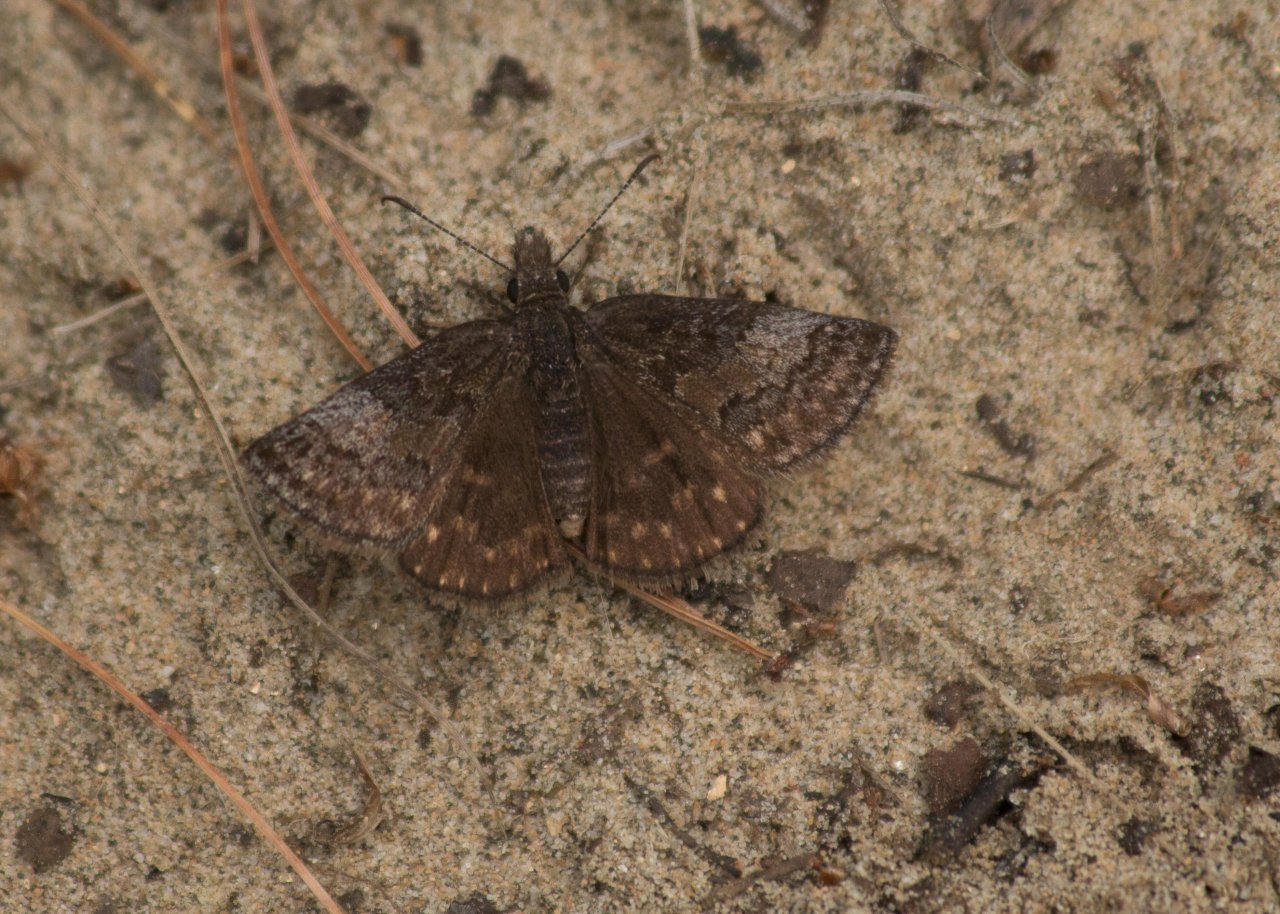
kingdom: Animalia
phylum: Arthropoda
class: Insecta
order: Lepidoptera
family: Hesperiidae
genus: Erynnis
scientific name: Erynnis icelus
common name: Dreamy Duskywing
